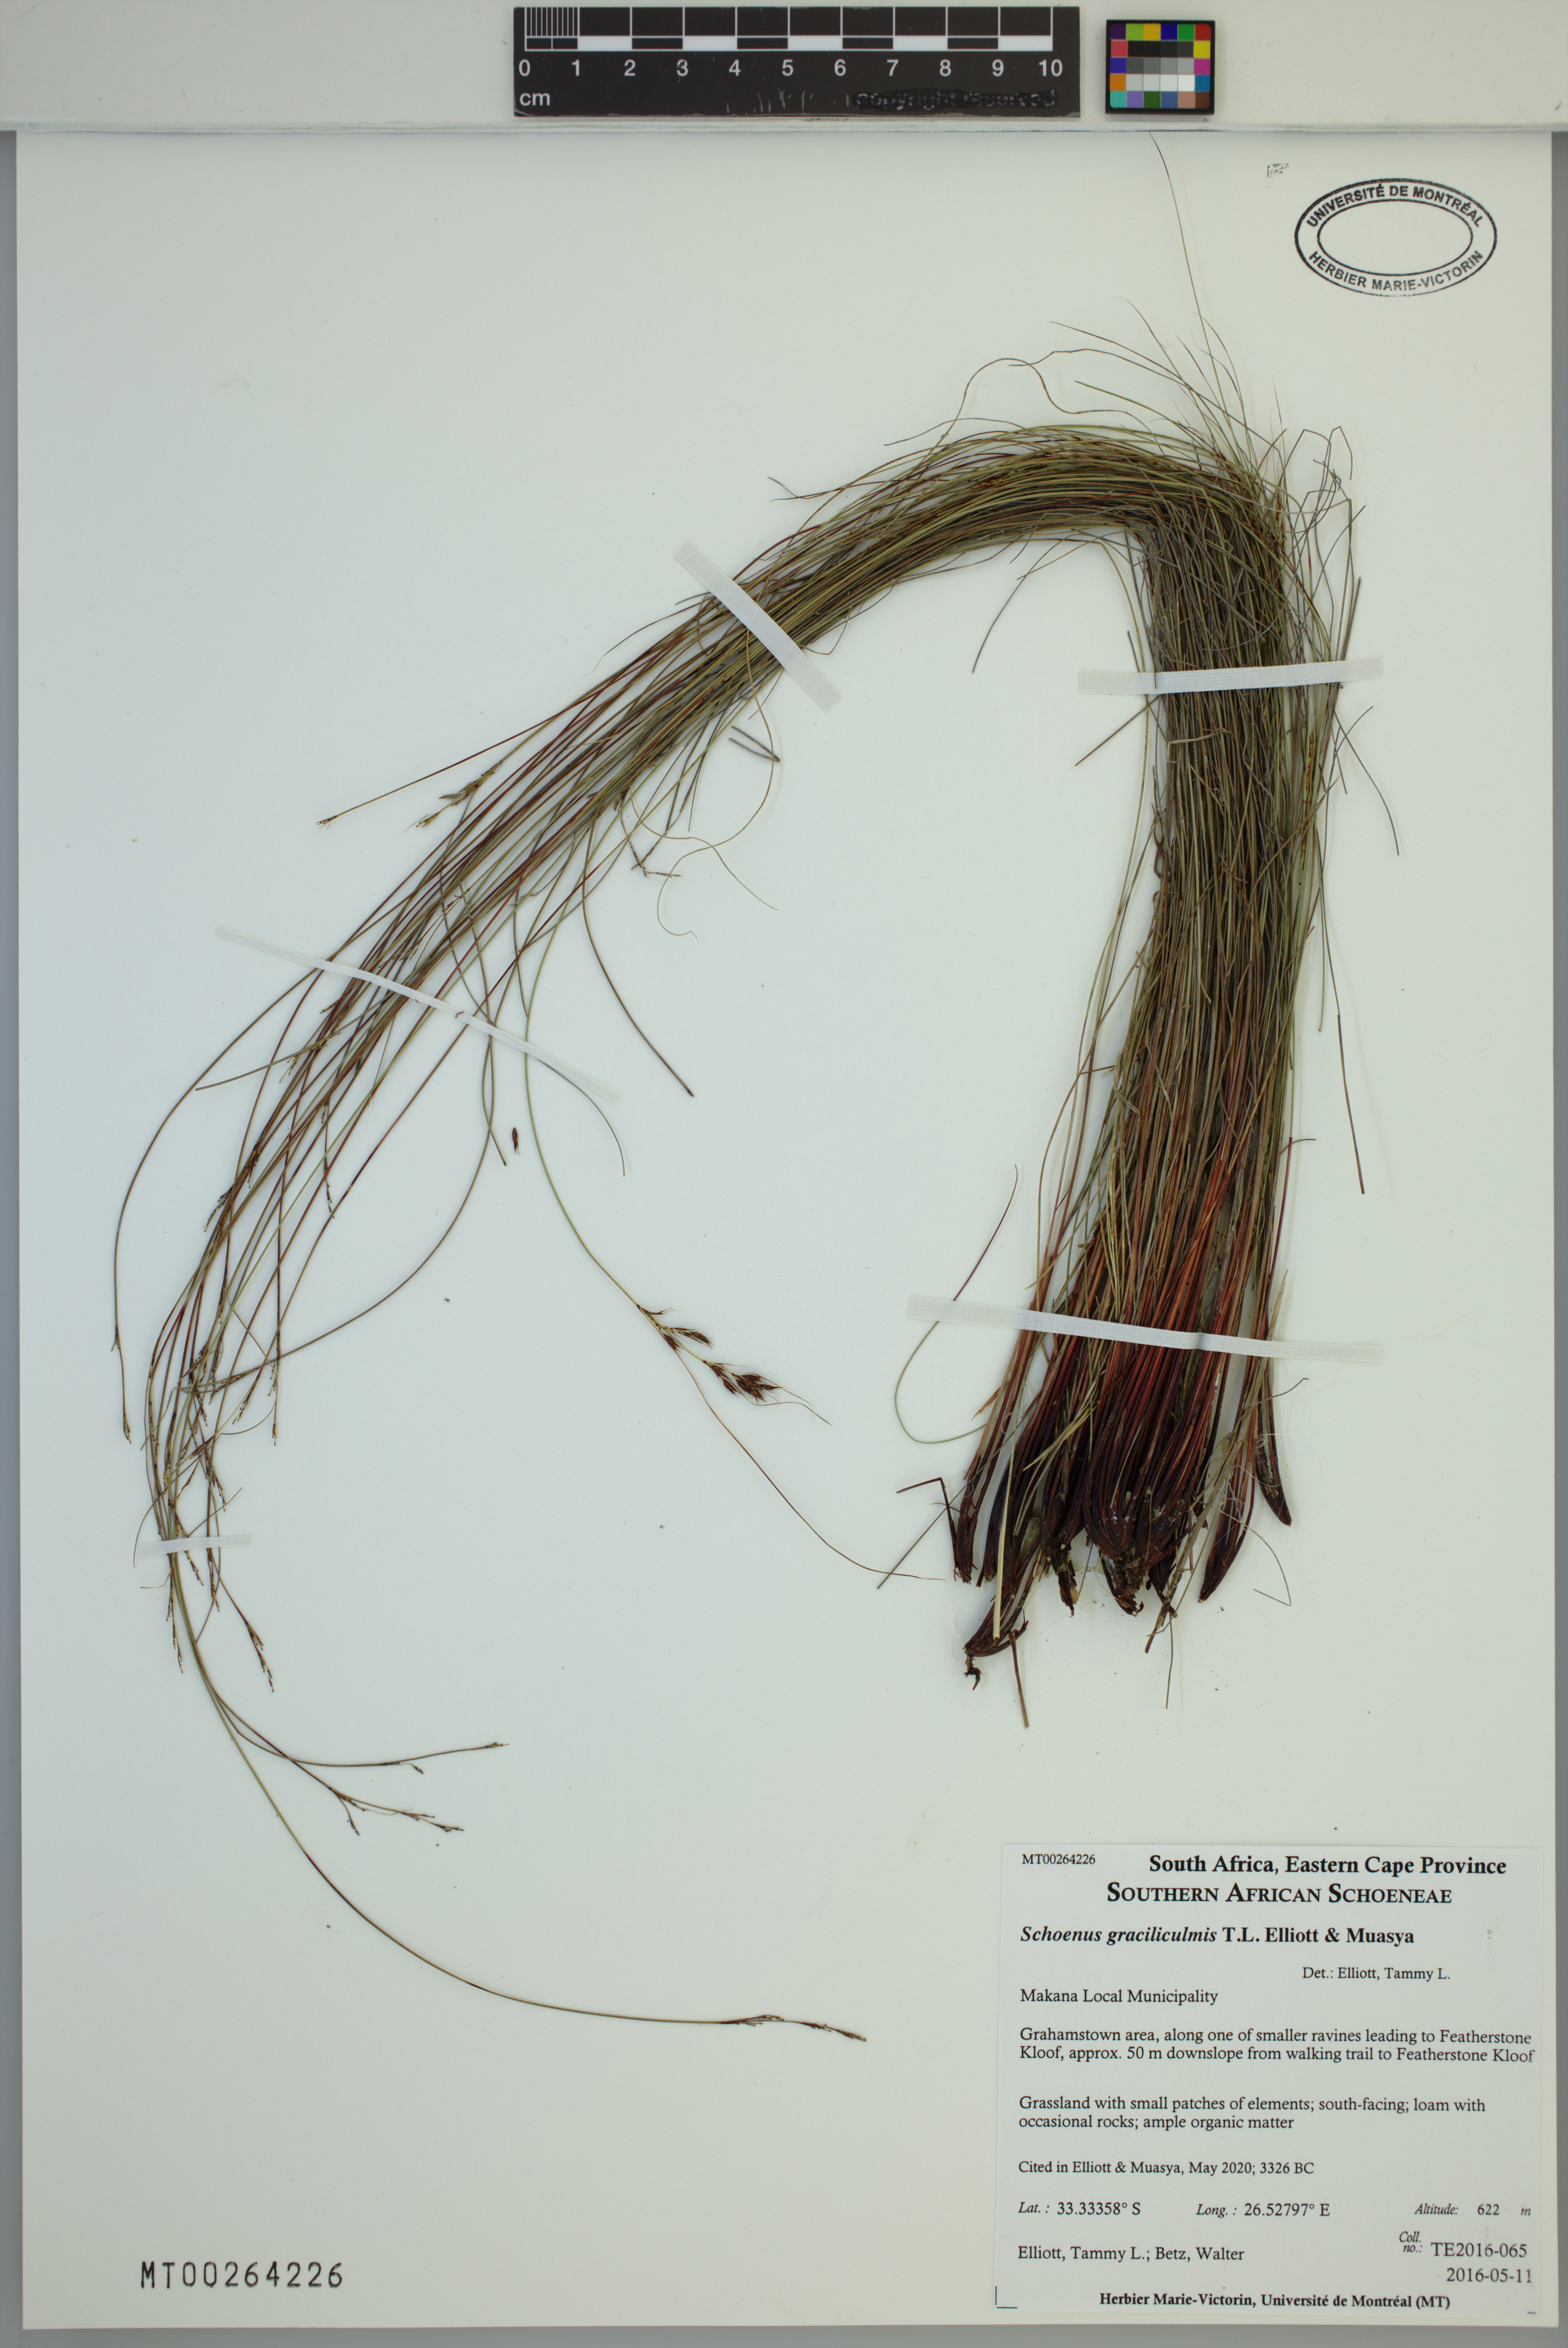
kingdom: Plantae
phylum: Tracheophyta
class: Liliopsida
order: Poales
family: Cyperaceae
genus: Schoenus
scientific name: Schoenus graciliculmis
